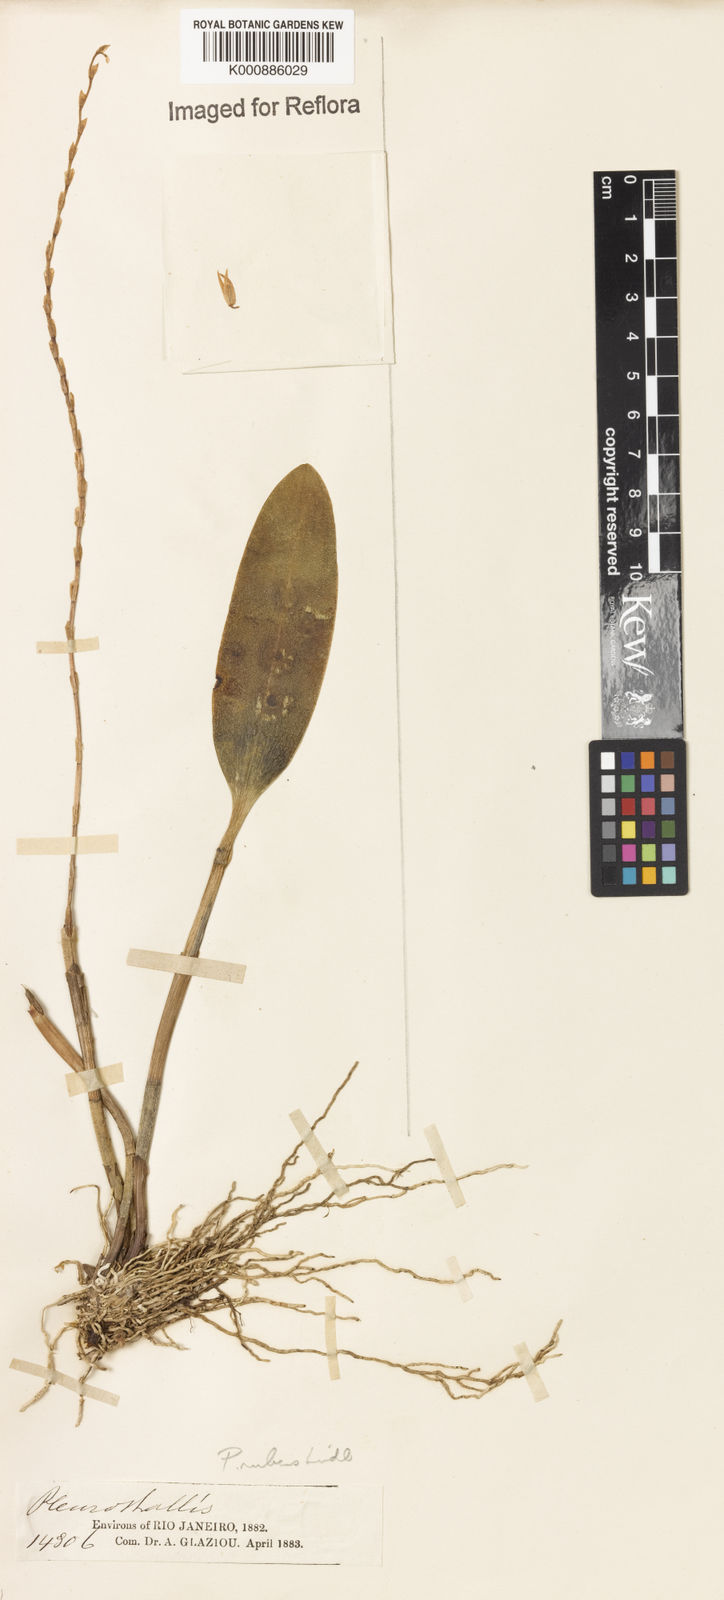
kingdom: Plantae
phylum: Tracheophyta
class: Liliopsida
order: Asparagales
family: Orchidaceae
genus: Stelis
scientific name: Stelis montserratii
